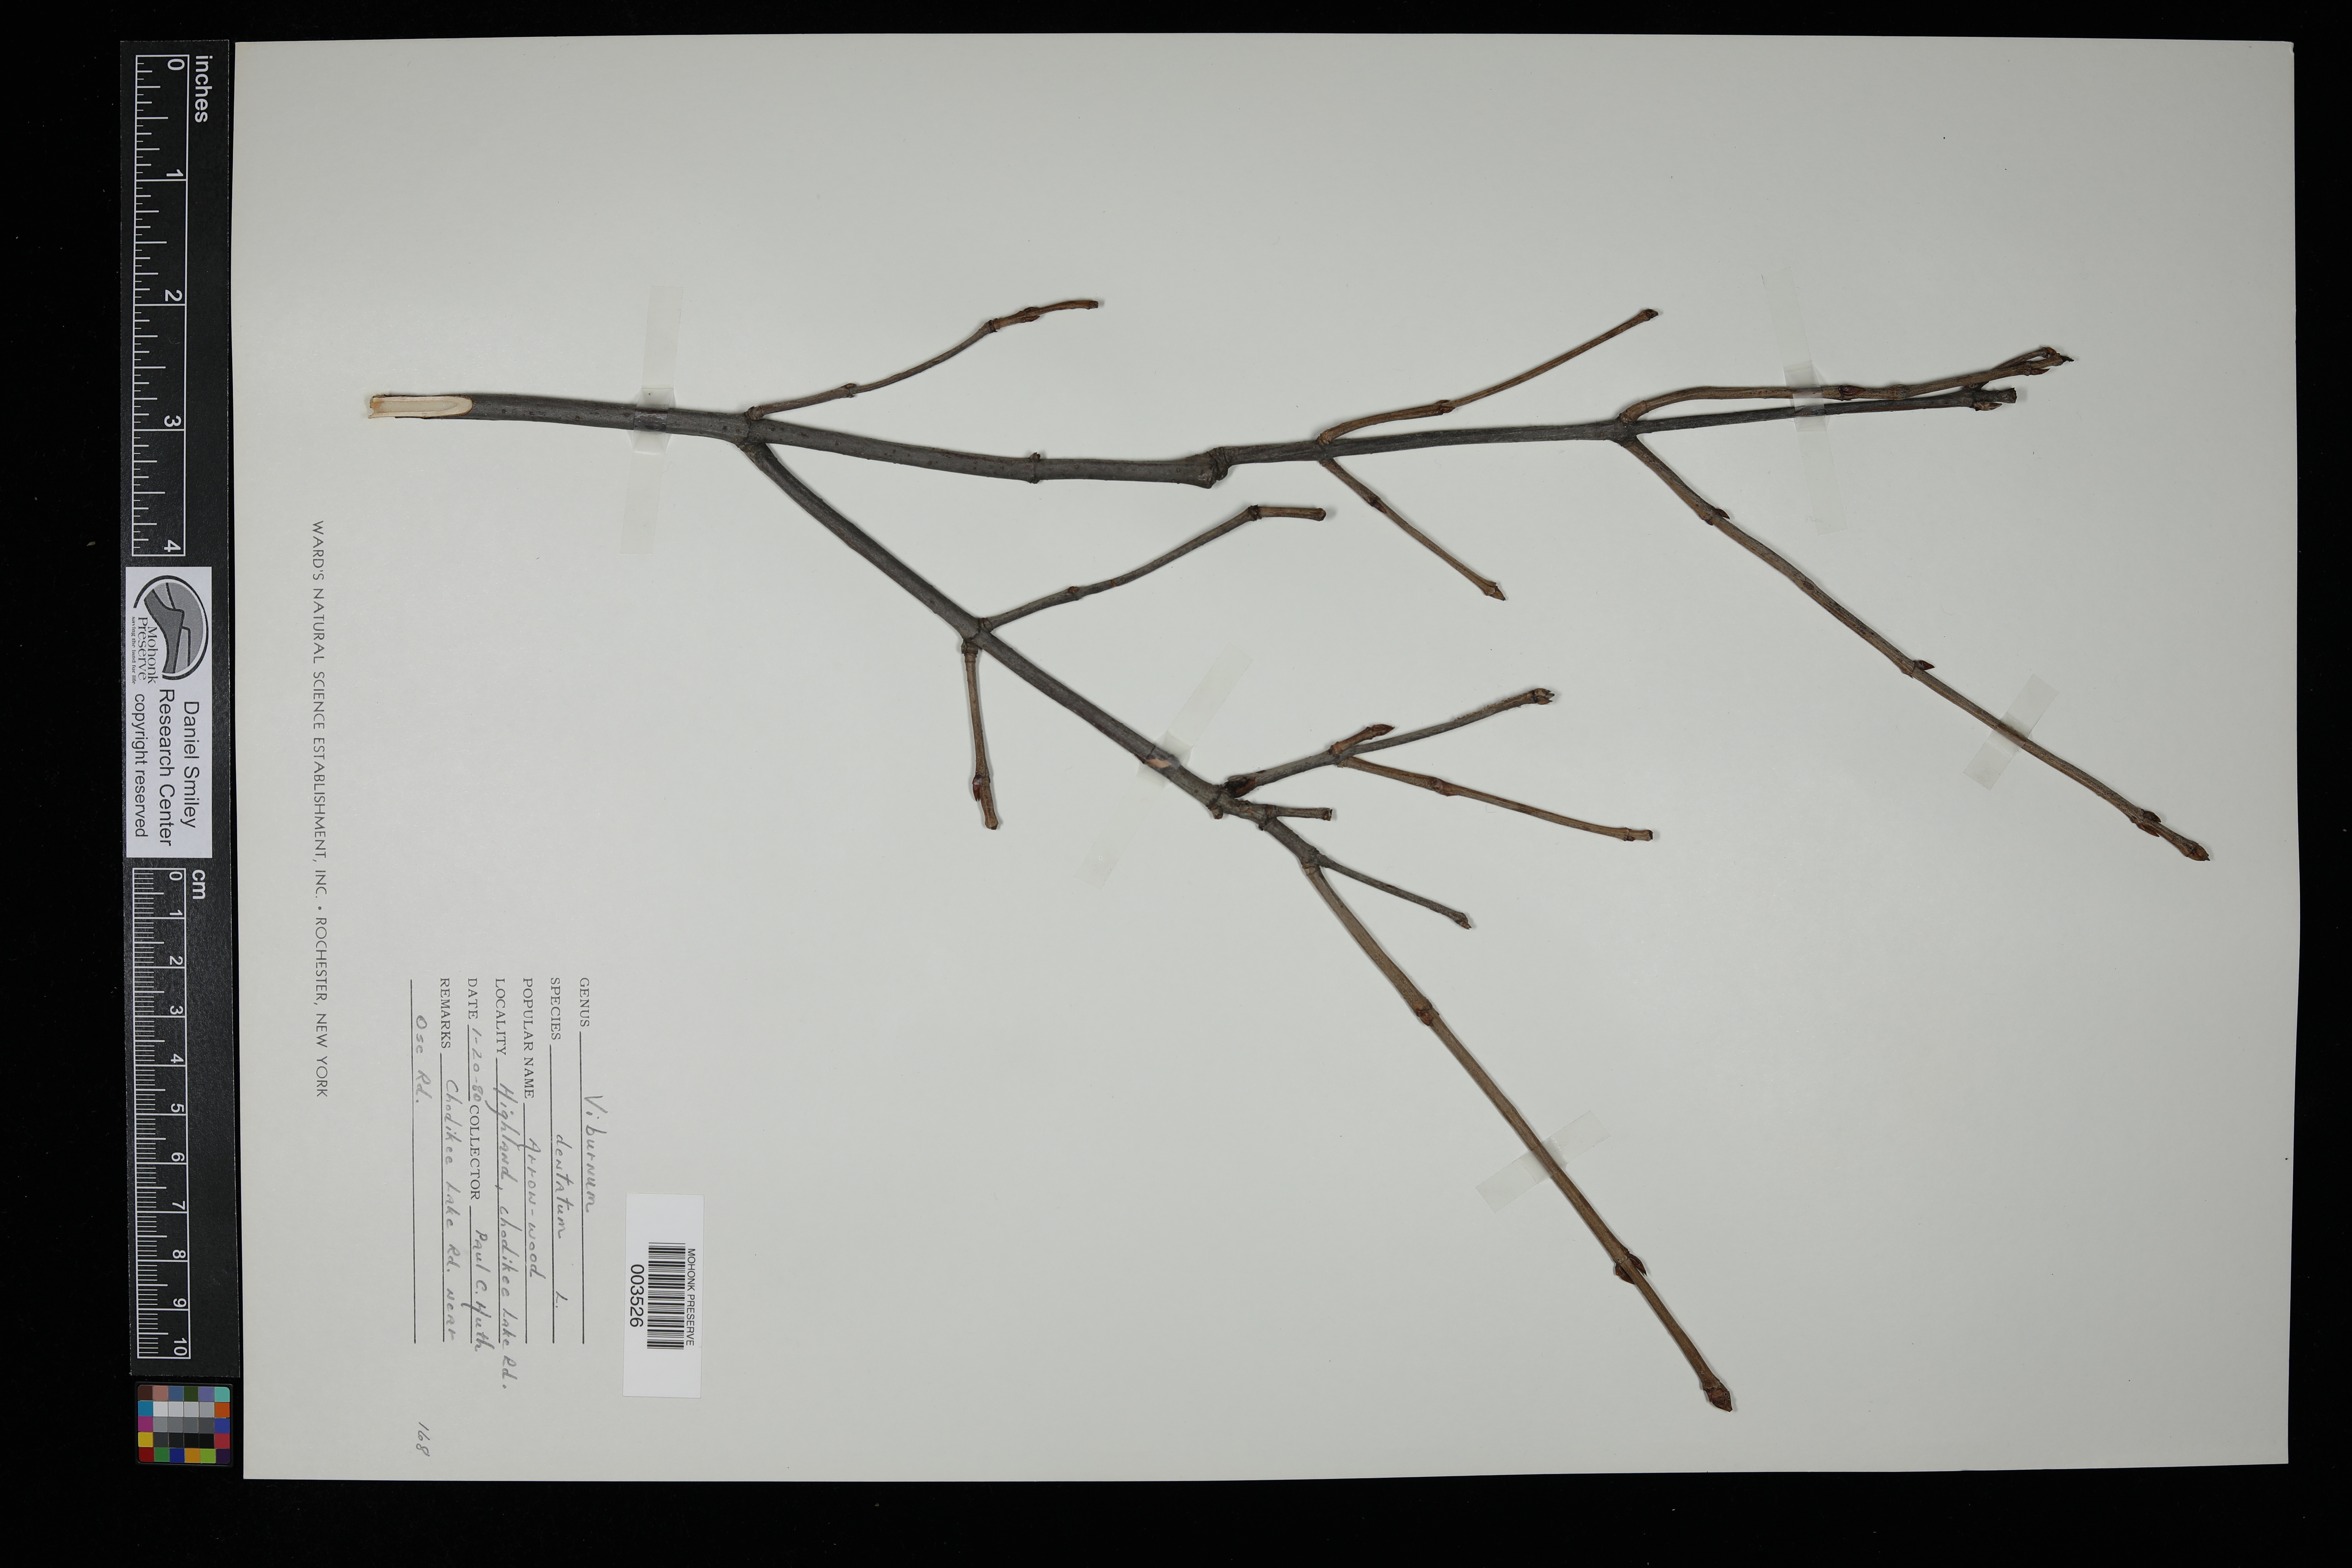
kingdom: Plantae
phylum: Tracheophyta
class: Magnoliopsida
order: Dipsacales
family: Viburnaceae
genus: Viburnum
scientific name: Viburnum dentatum
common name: Arrow-wood
